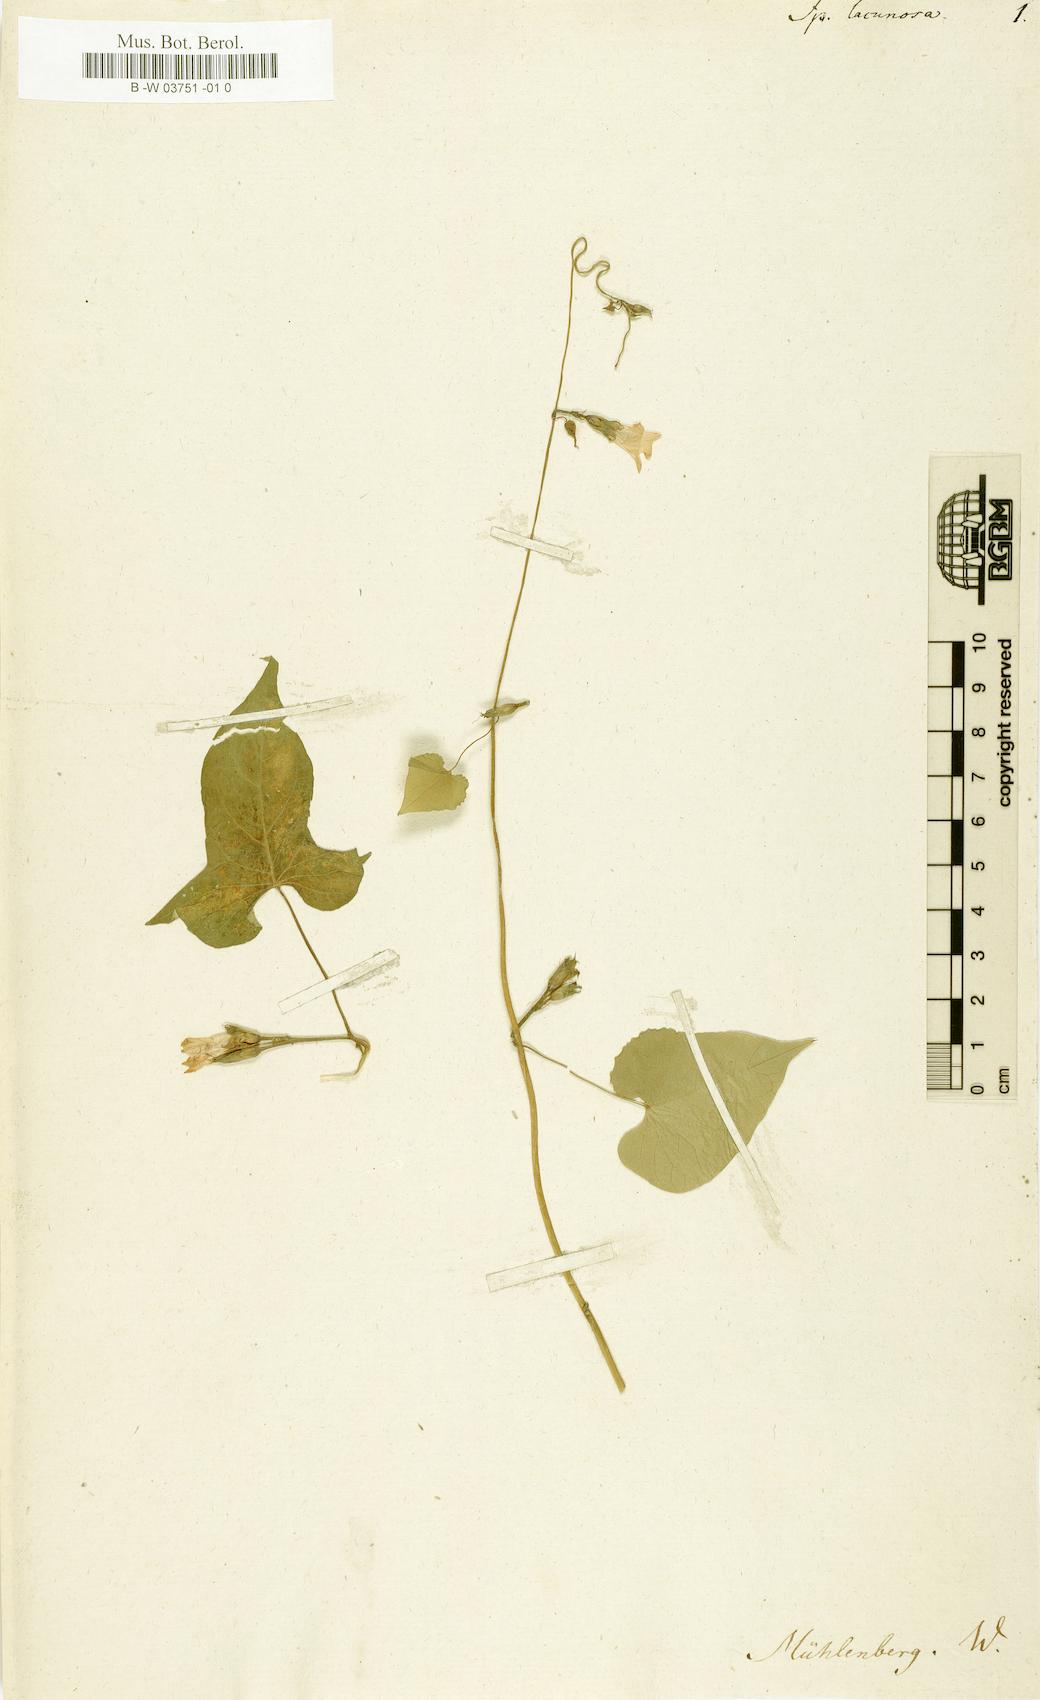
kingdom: Plantae
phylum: Tracheophyta
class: Magnoliopsida
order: Solanales
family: Convolvulaceae
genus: Ipomoea
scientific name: Ipomoea lacunosa
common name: White morning-glory
